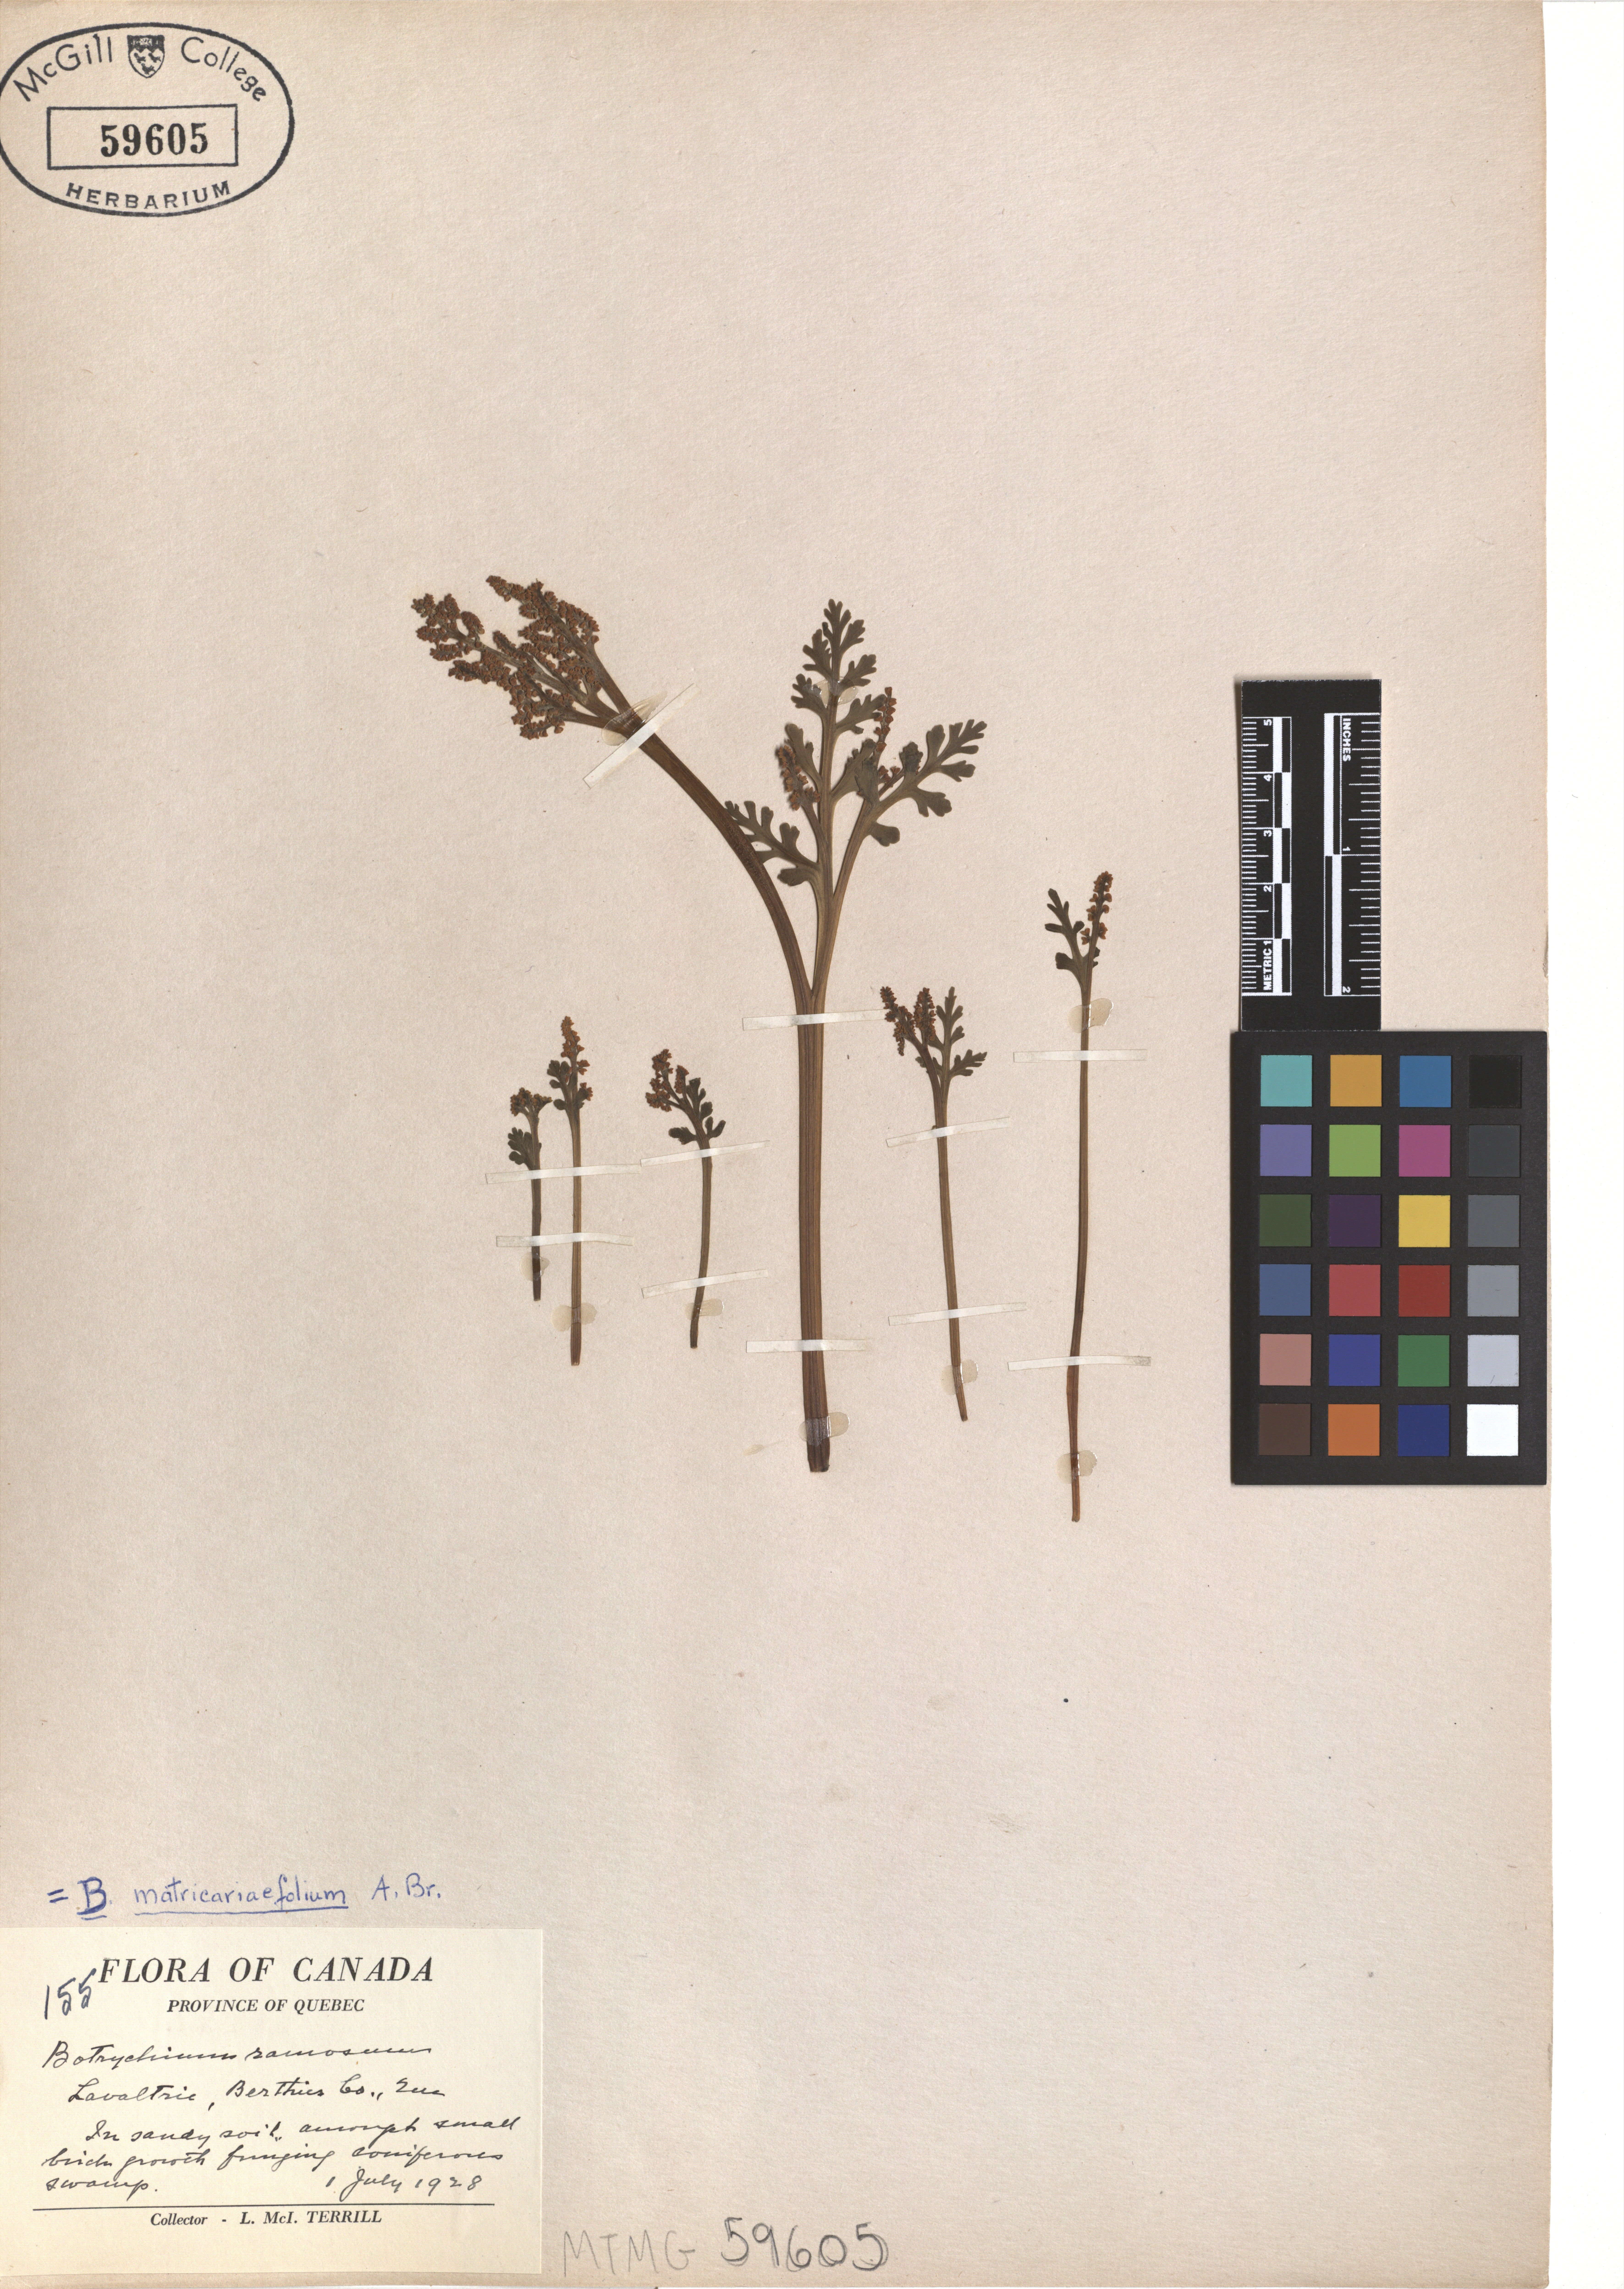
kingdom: Plantae
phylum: Tracheophyta
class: Polypodiopsida
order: Ophioglossales
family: Ophioglossaceae
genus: Botrychium
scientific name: Botrychium matricariifolium
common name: Branched moonwort
